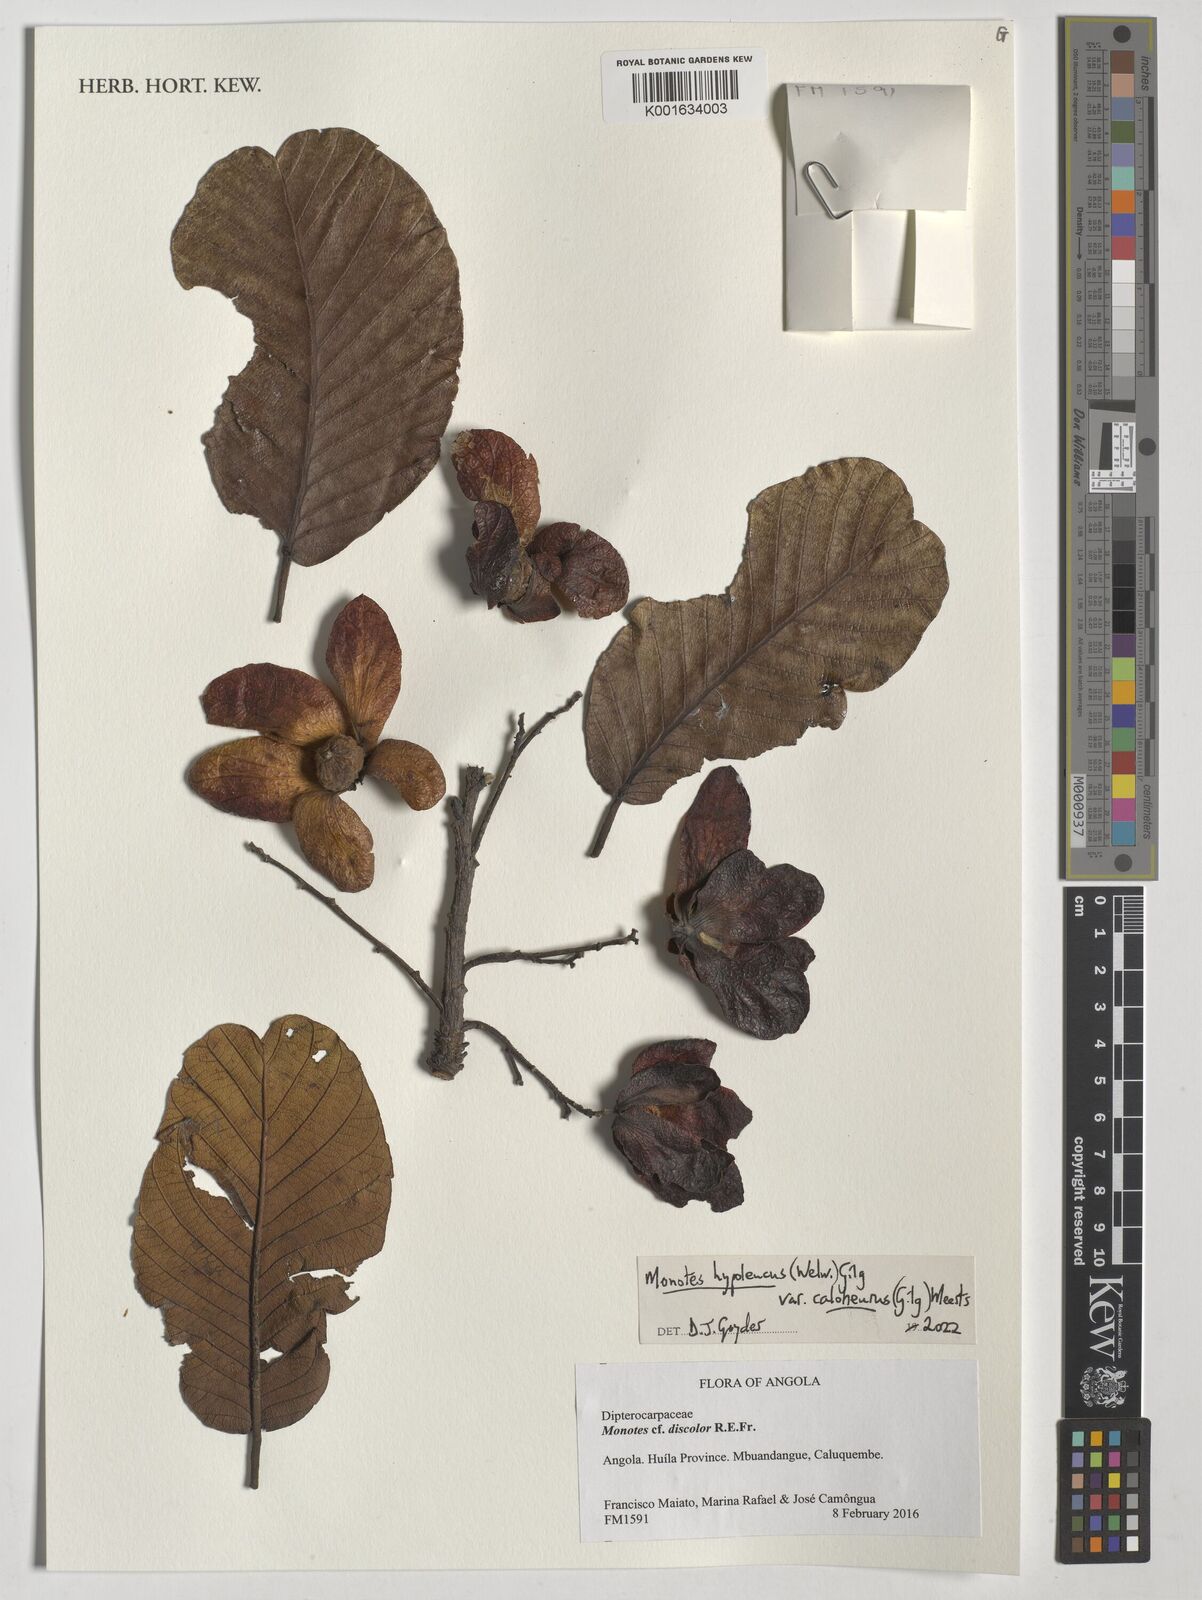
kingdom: Plantae
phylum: Tracheophyta
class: Magnoliopsida
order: Malvales
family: Dipterocarpaceae
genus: Monotes
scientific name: Monotes hypoleucus
